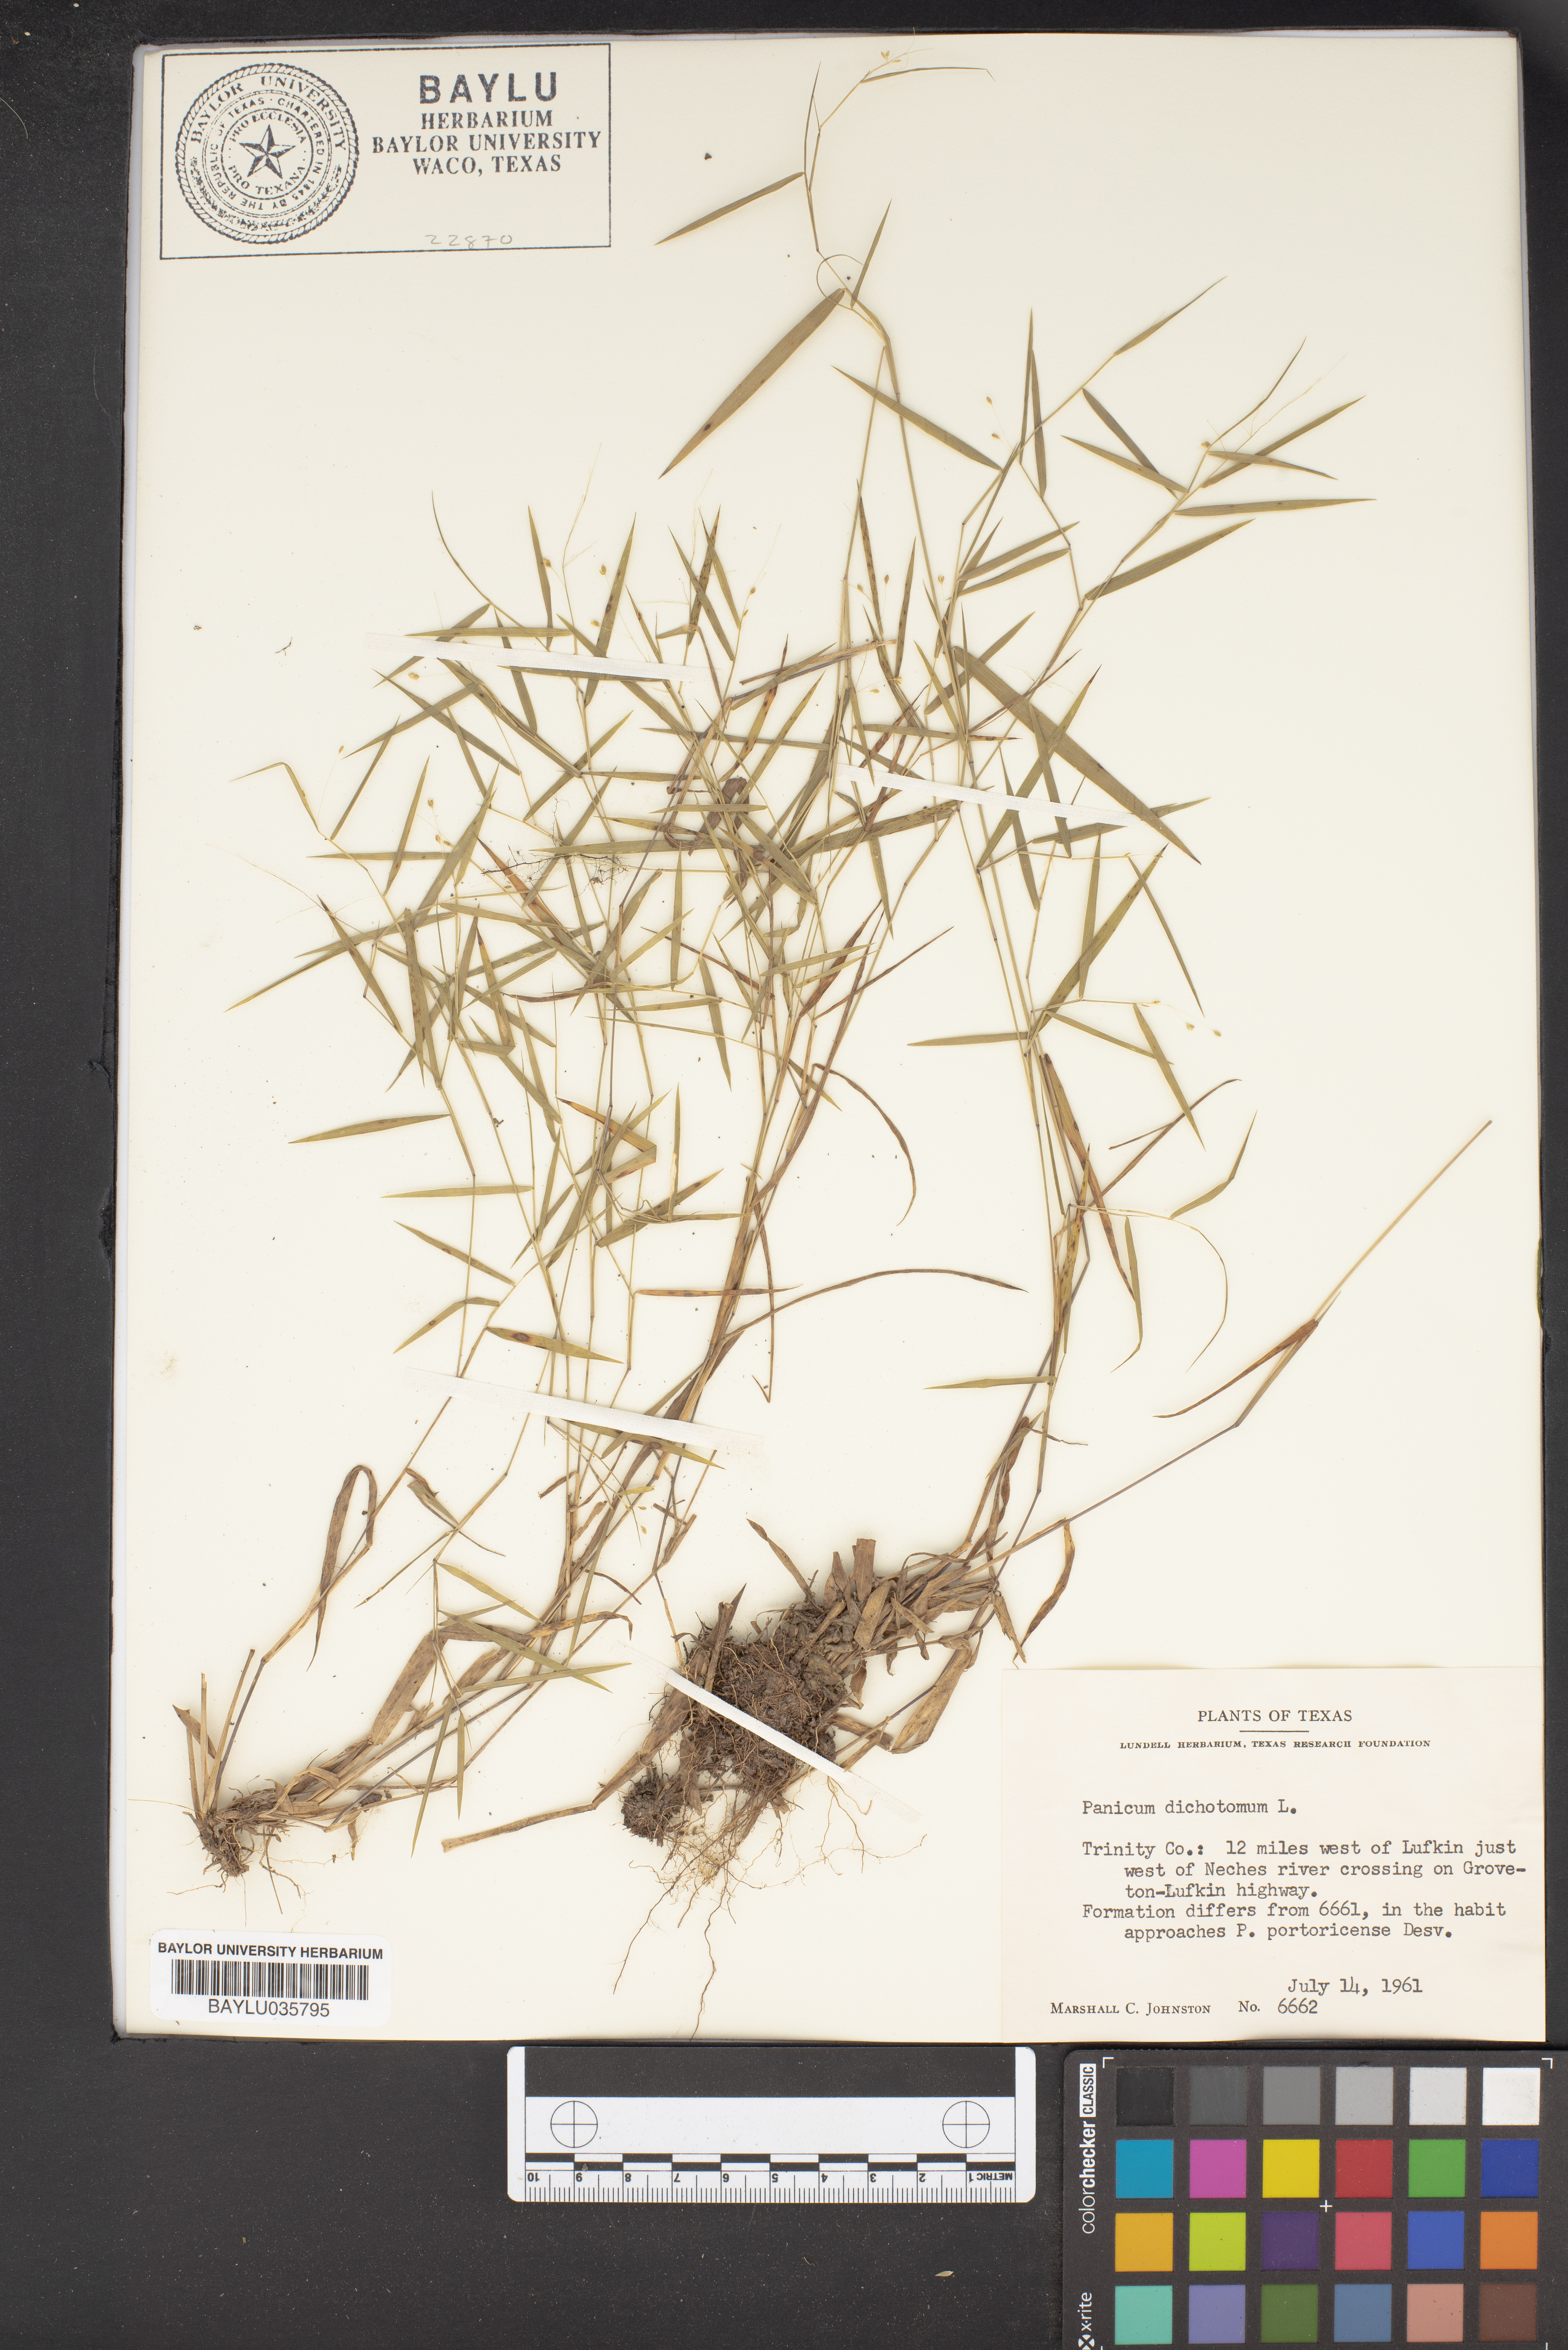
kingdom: Plantae
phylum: Tracheophyta
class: Liliopsida
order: Poales
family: Poaceae
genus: Dichanthelium
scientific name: Dichanthelium dichotomum
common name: Cypress panicgrass
